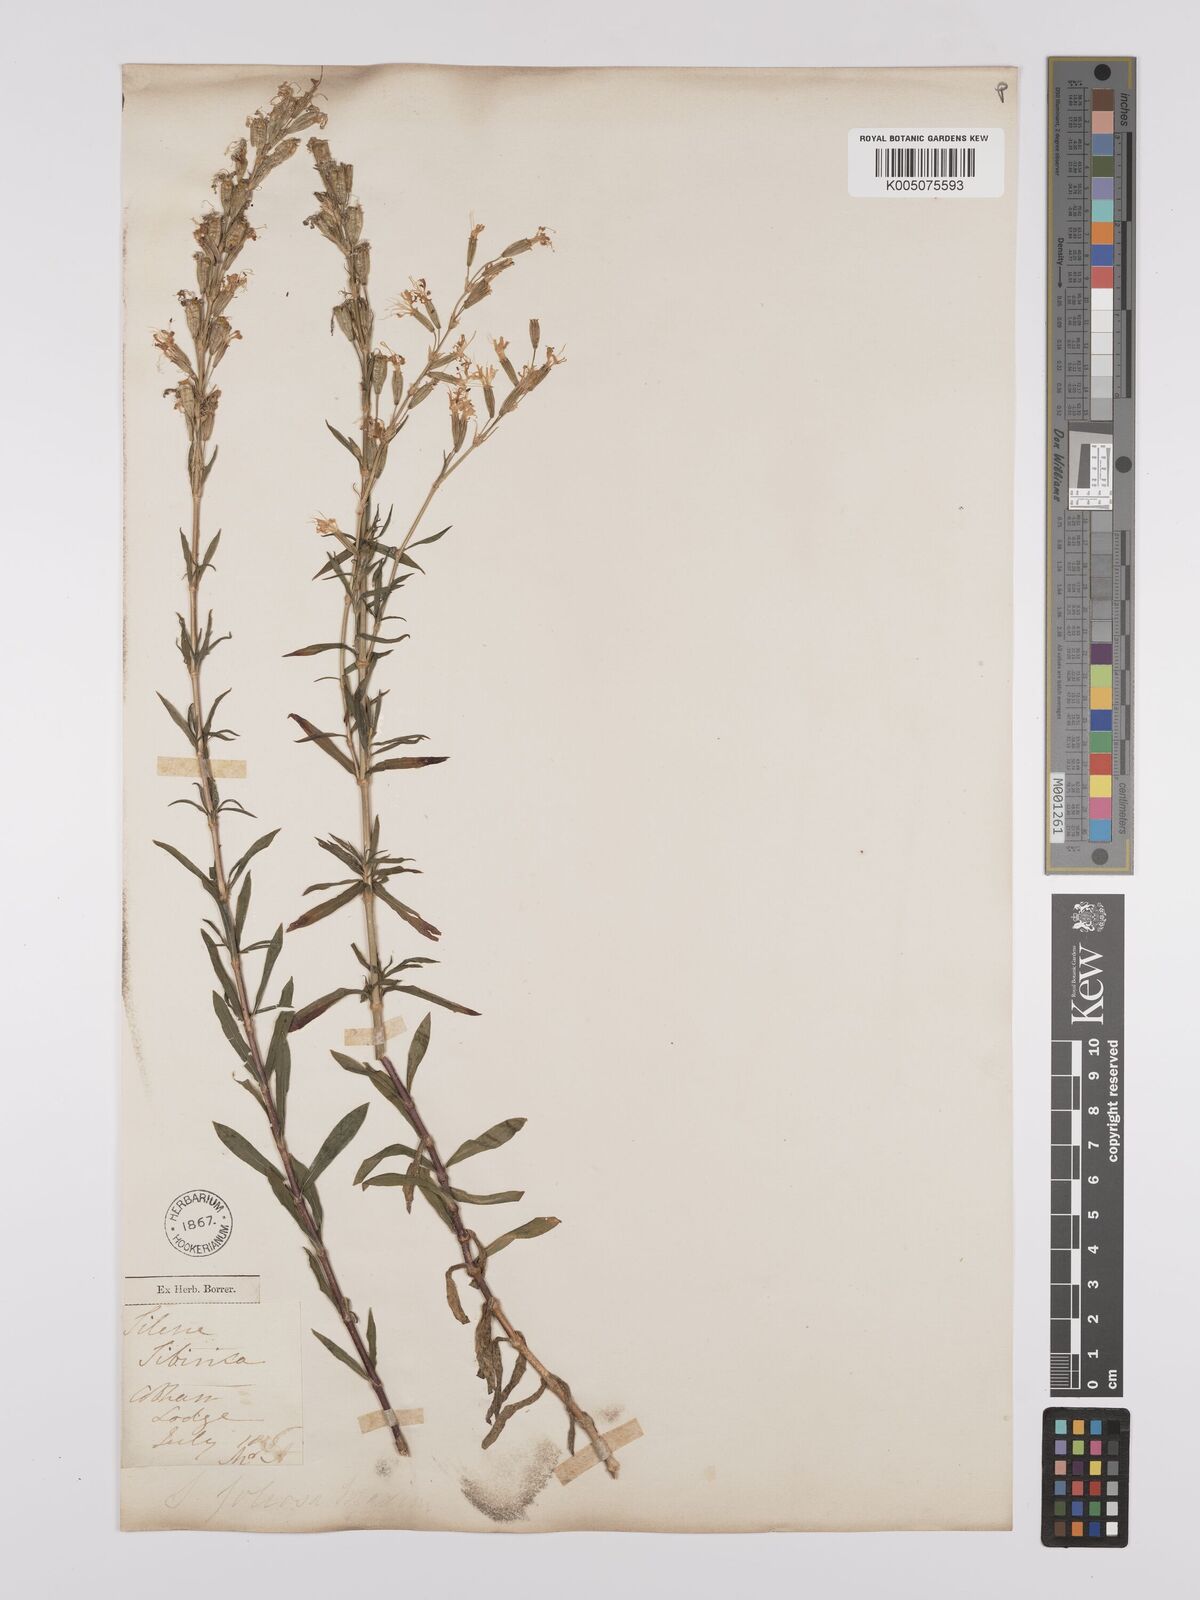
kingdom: Plantae
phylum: Tracheophyta
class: Magnoliopsida
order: Caryophyllales
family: Caryophyllaceae
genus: Silene
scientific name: Silene foliosa
